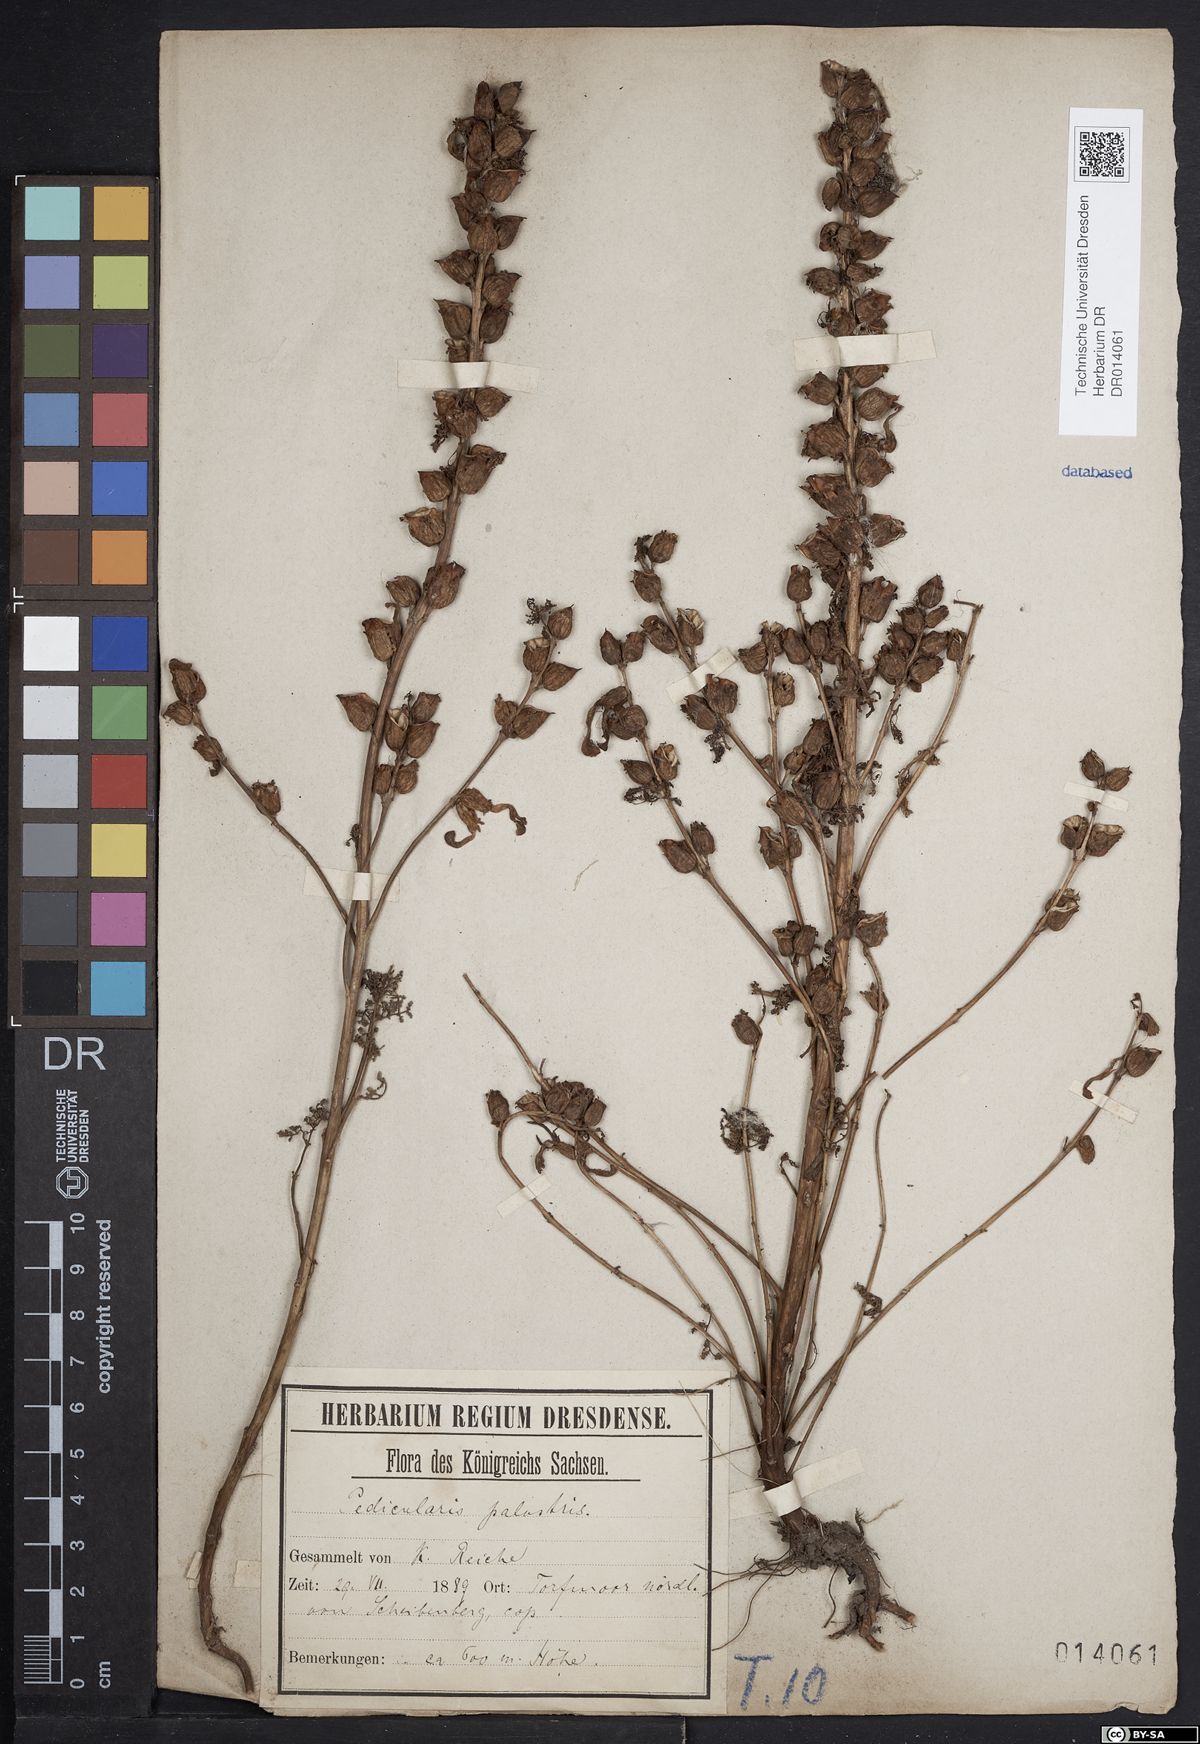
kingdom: Plantae
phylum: Tracheophyta
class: Magnoliopsida
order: Lamiales
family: Orobanchaceae
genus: Pedicularis
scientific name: Pedicularis palustris
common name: Marsh lousewort
